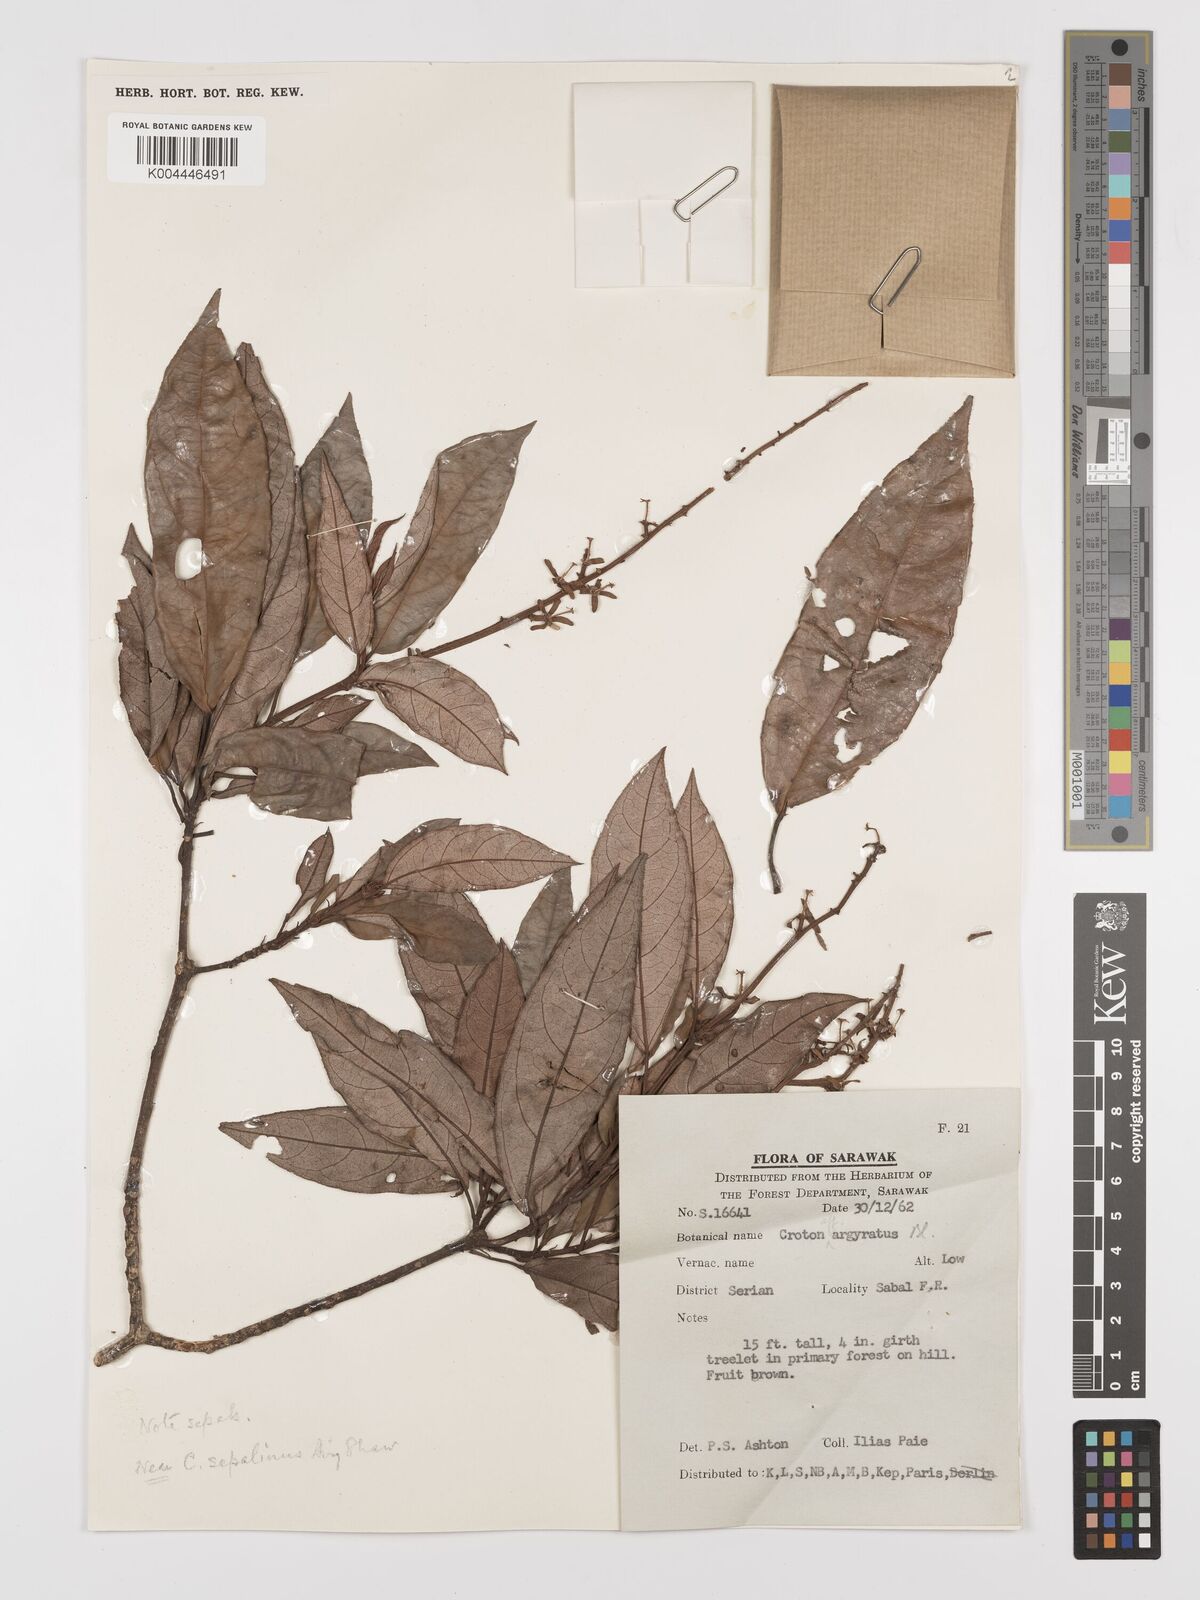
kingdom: Plantae
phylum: Tracheophyta
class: Magnoliopsida
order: Malpighiales
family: Euphorbiaceae
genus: Croton
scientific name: Croton argyratus
